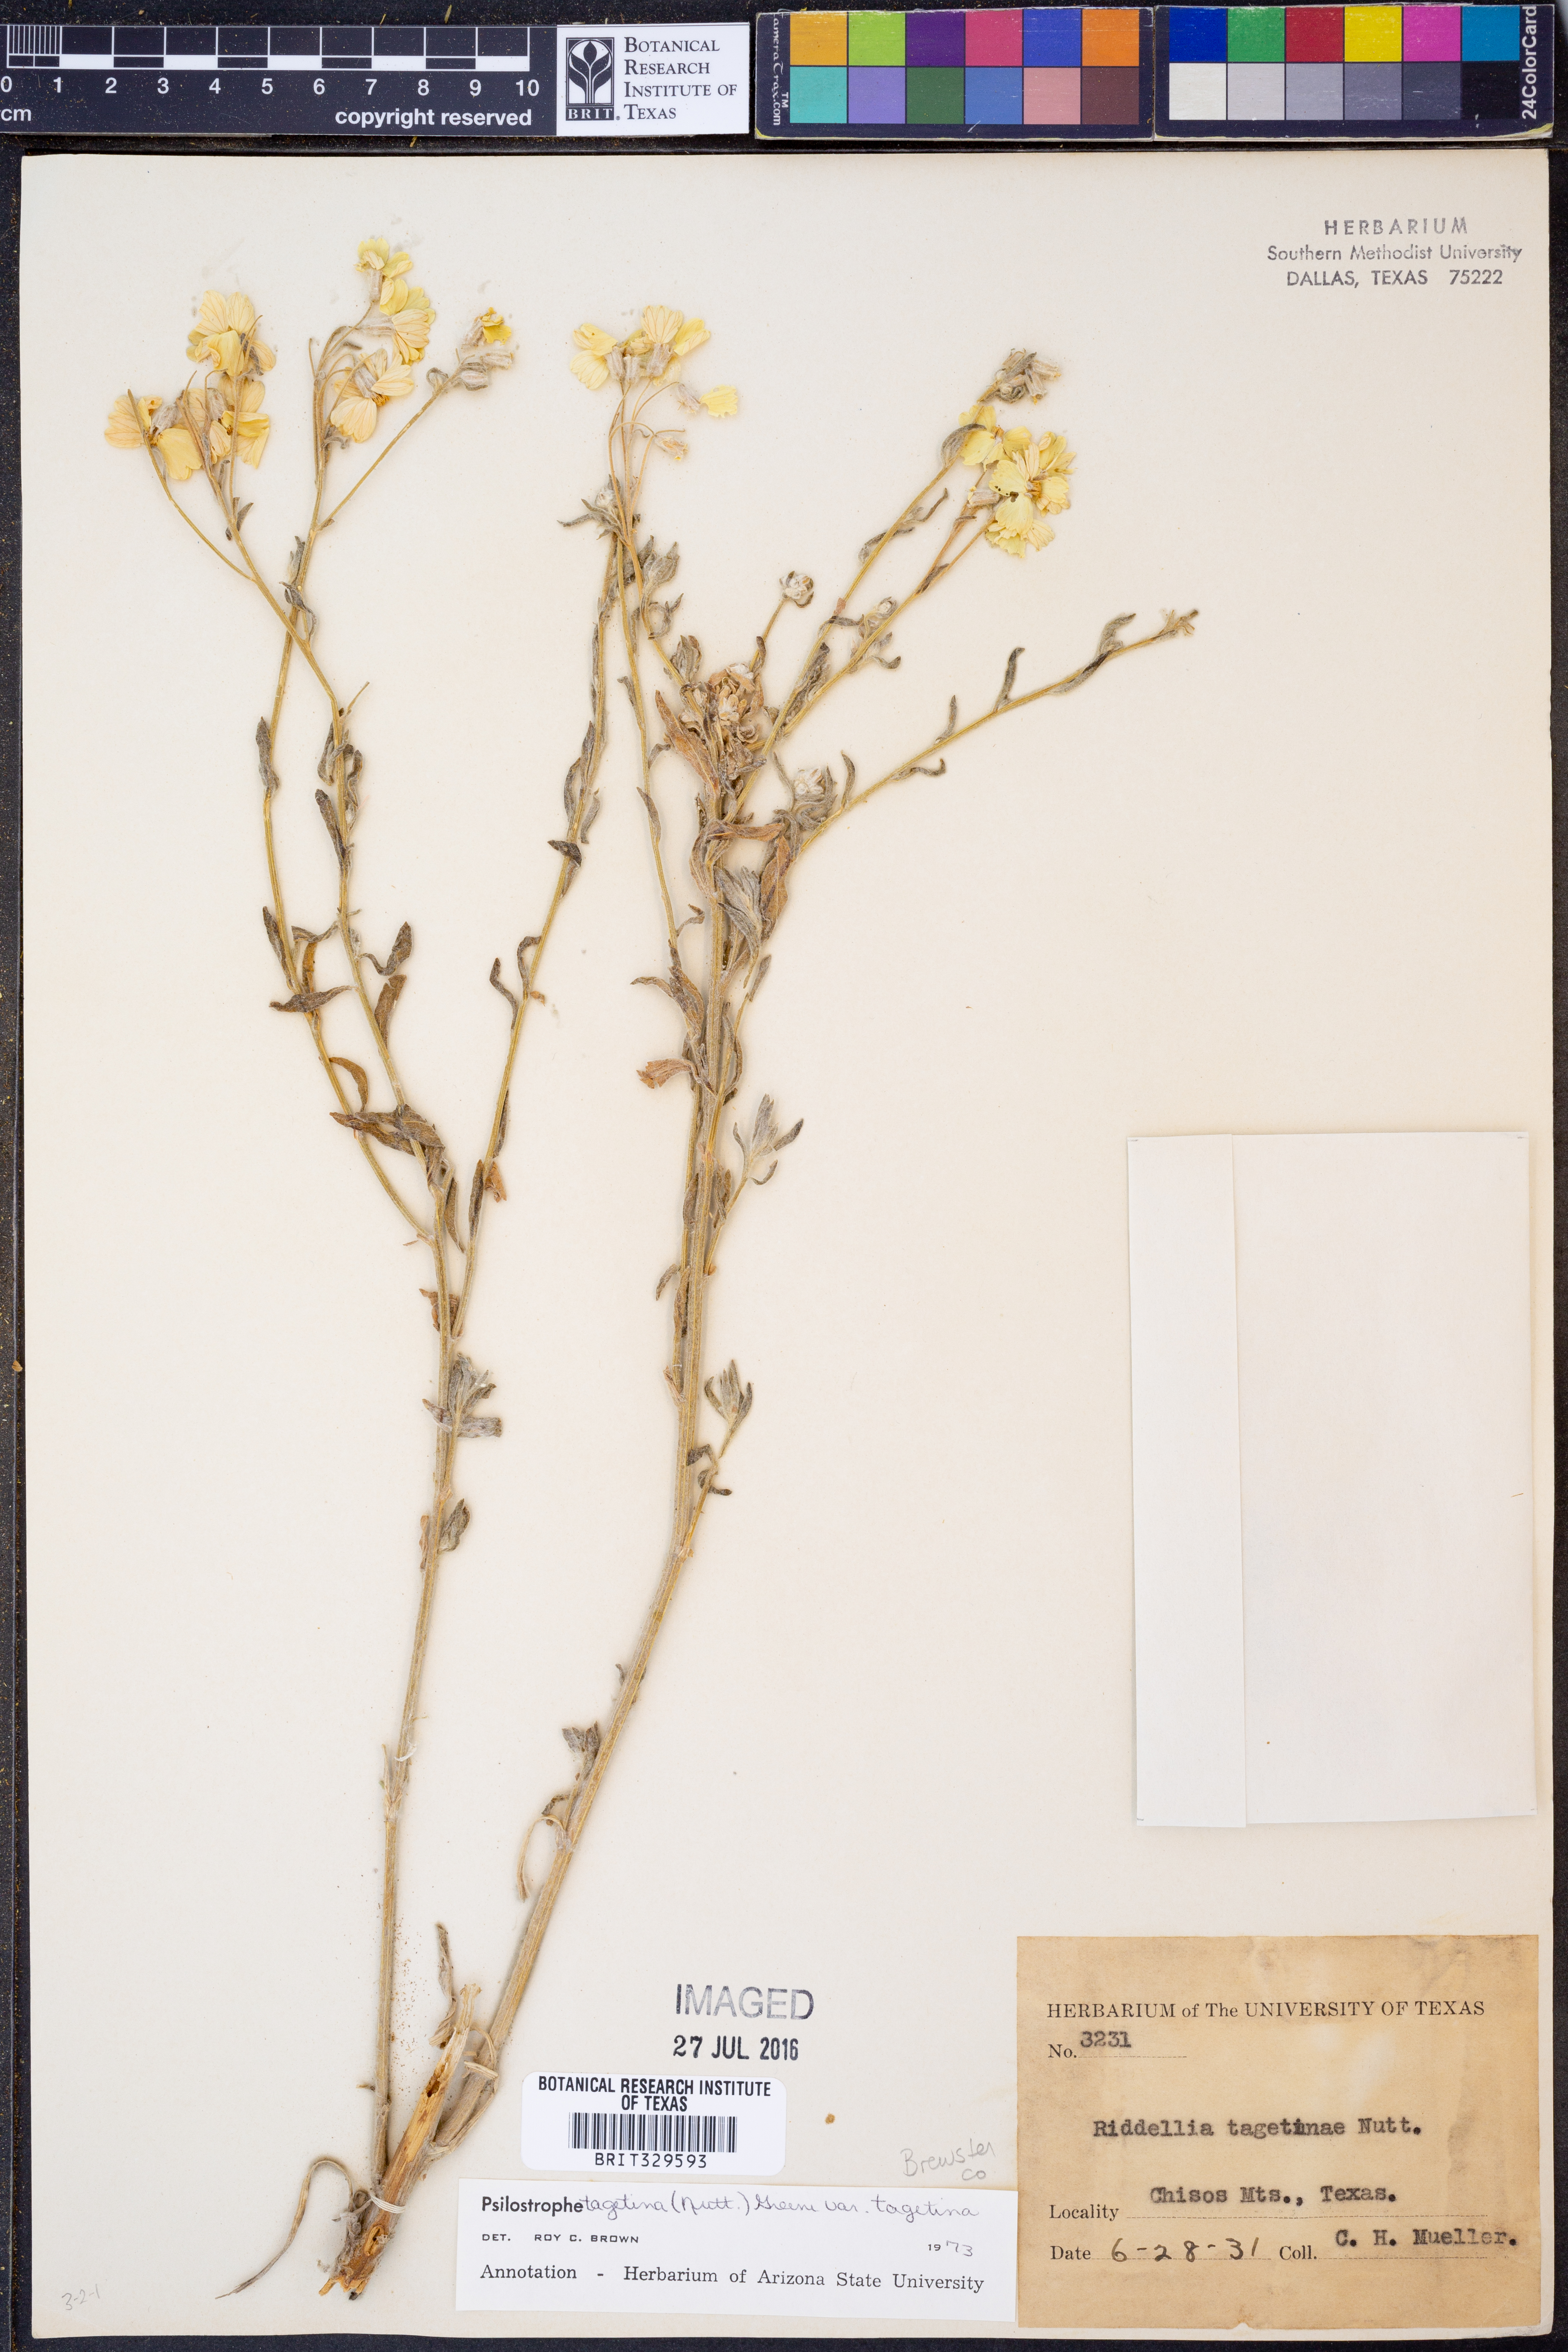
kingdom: Plantae
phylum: Tracheophyta
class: Magnoliopsida
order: Asterales
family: Asteraceae
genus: Psilostrophe
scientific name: Psilostrophe tagetina
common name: Marigold paper-flower
